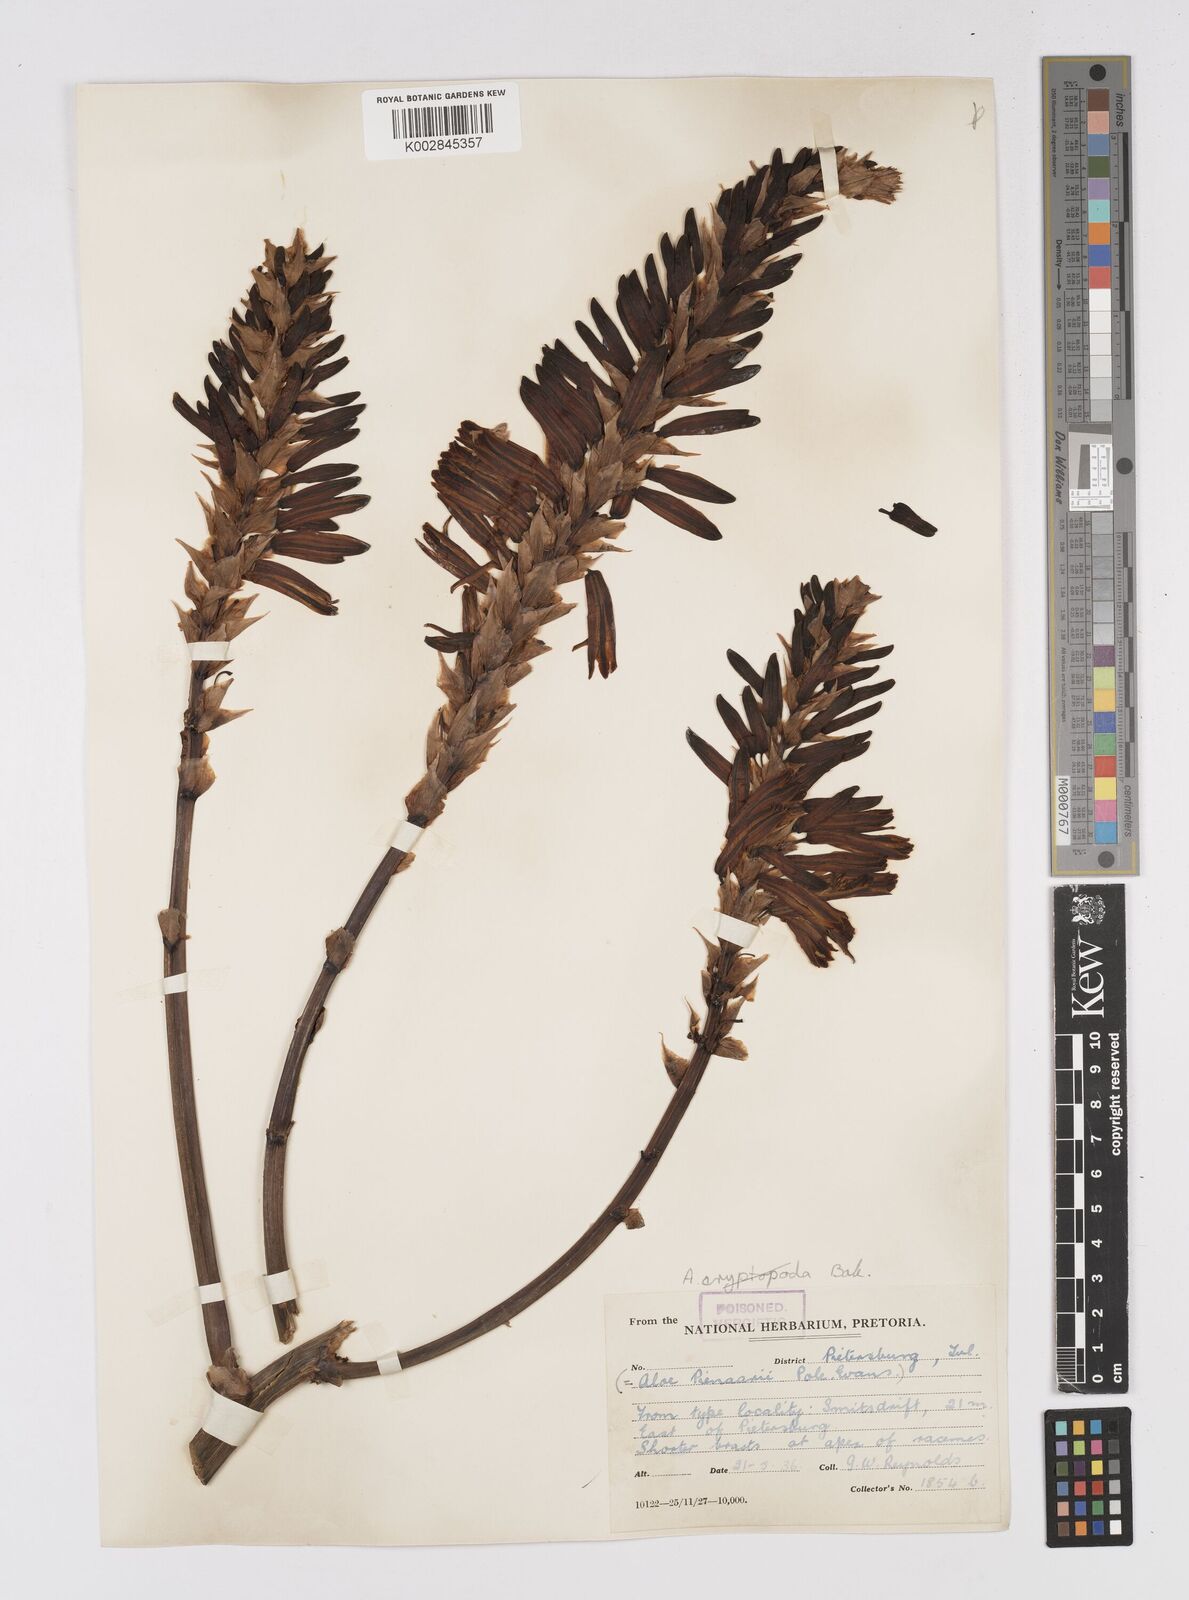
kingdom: Plantae
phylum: Tracheophyta
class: Liliopsida
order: Asparagales
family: Asphodelaceae
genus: Aloe
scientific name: Aloe pienaarii
